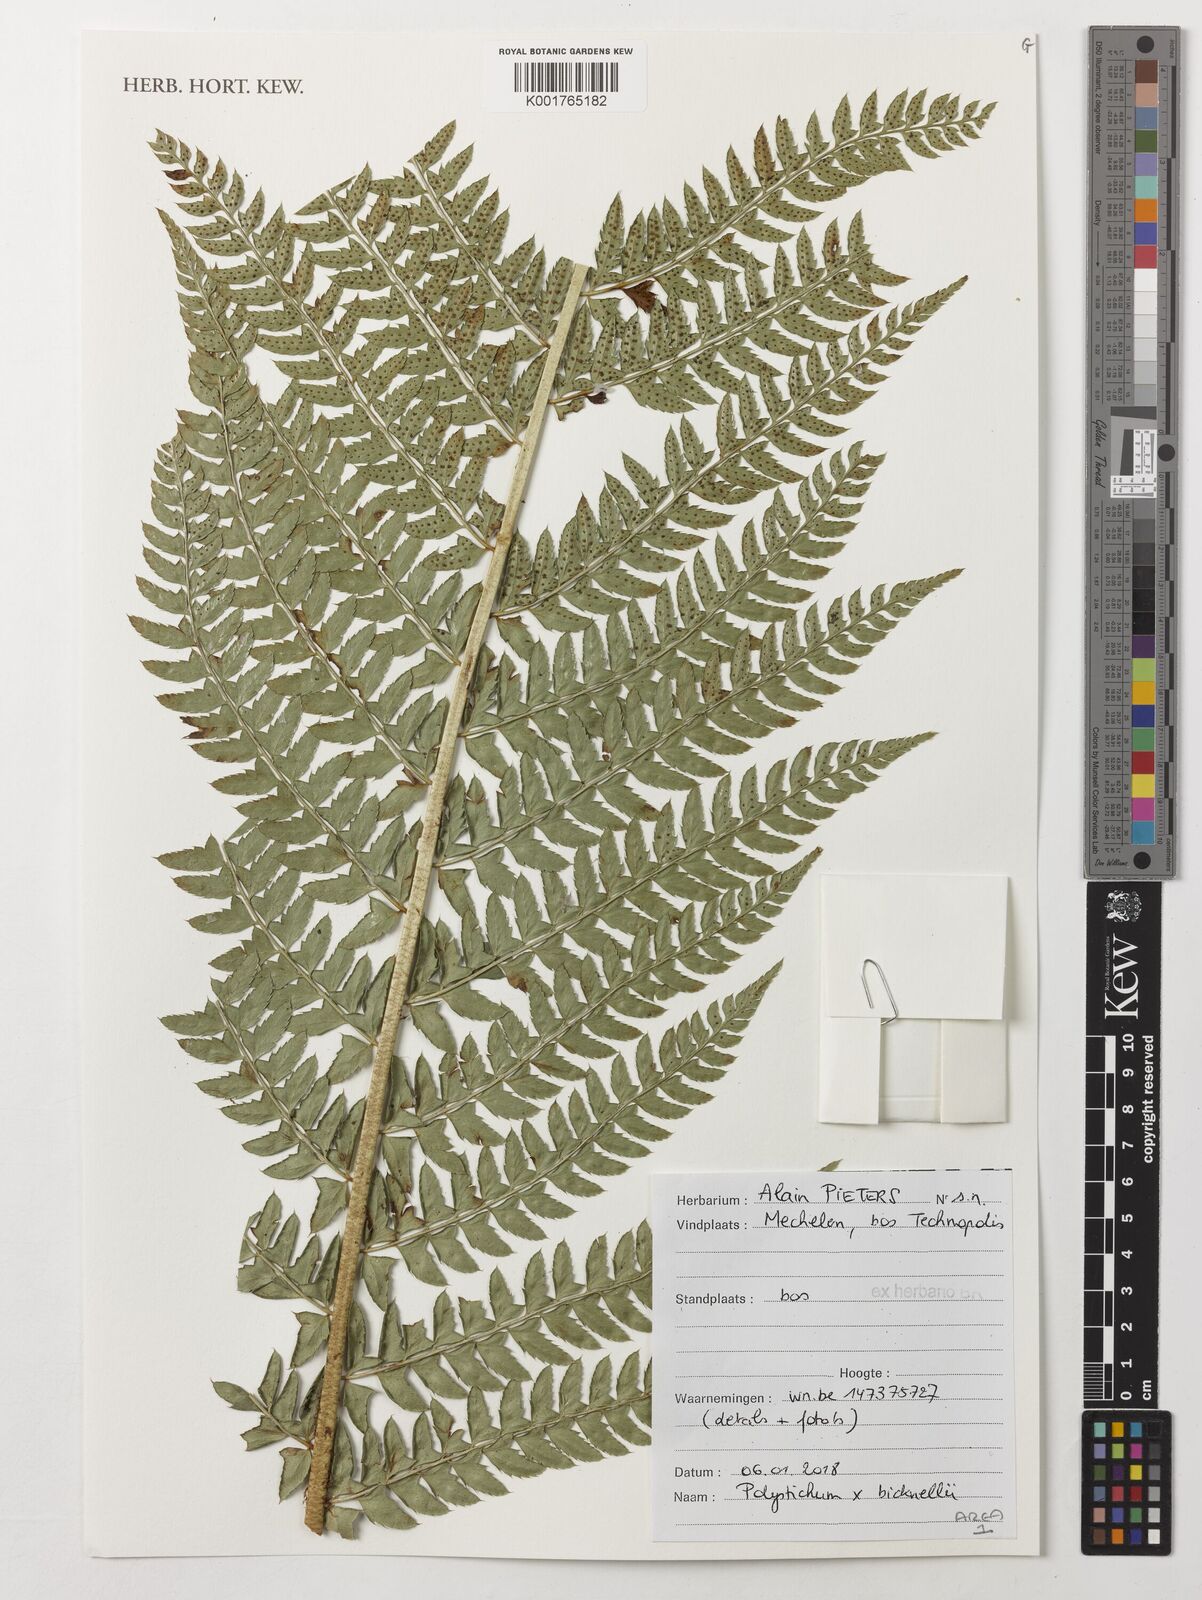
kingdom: Plantae
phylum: Tracheophyta
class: Polypodiopsida
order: Polypodiales
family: Dryopteridaceae
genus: Polystichum
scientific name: Polystichum bicknellii
